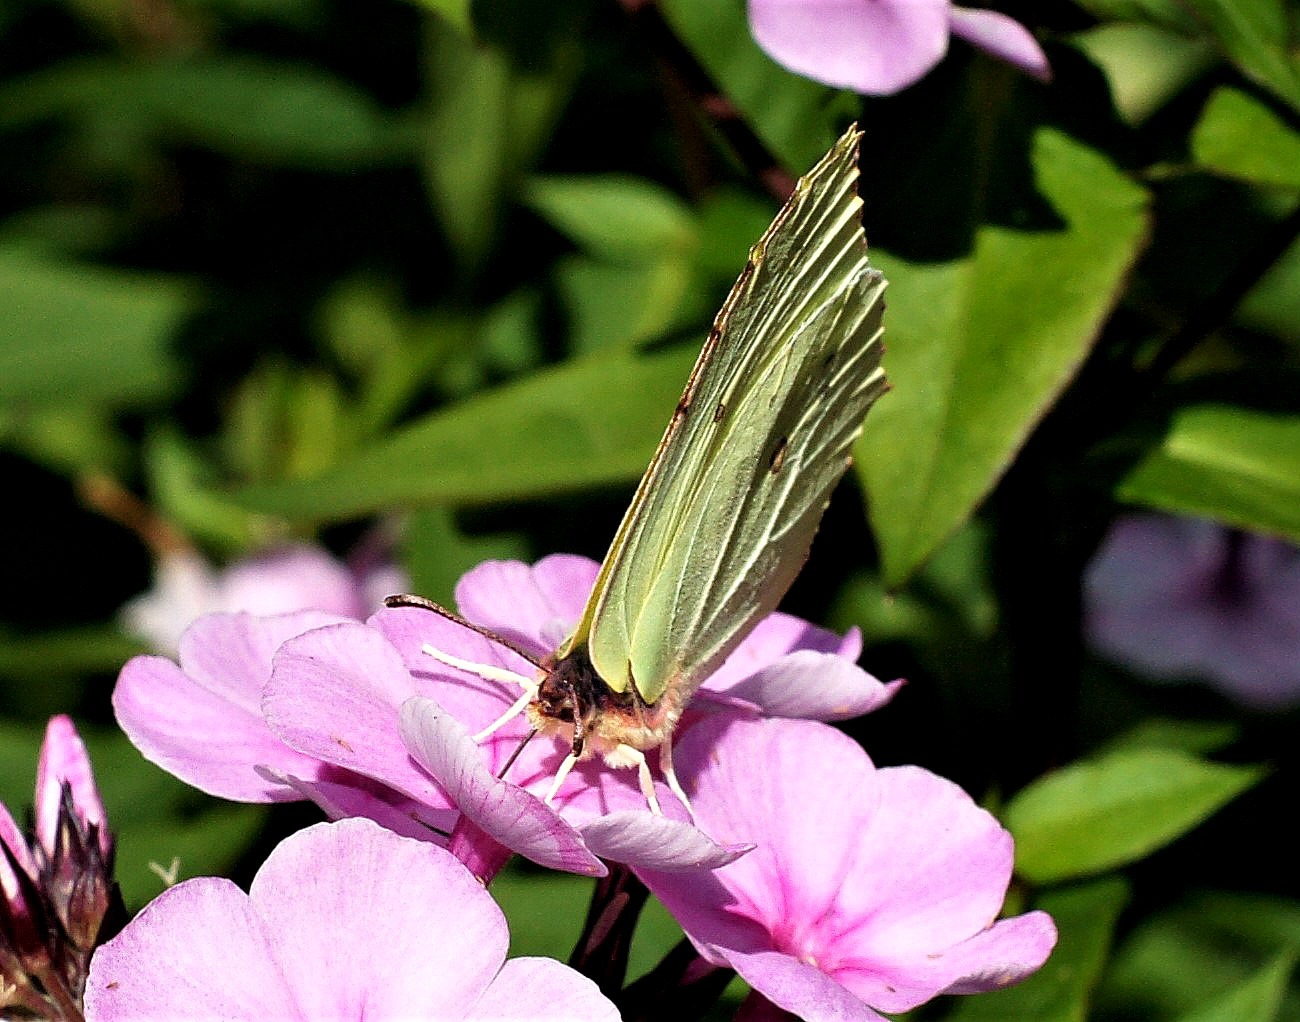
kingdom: Animalia
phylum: Arthropoda
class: Insecta
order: Lepidoptera
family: Pieridae
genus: Gonepteryx
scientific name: Gonepteryx rhamni
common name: Citronsommerfugl
